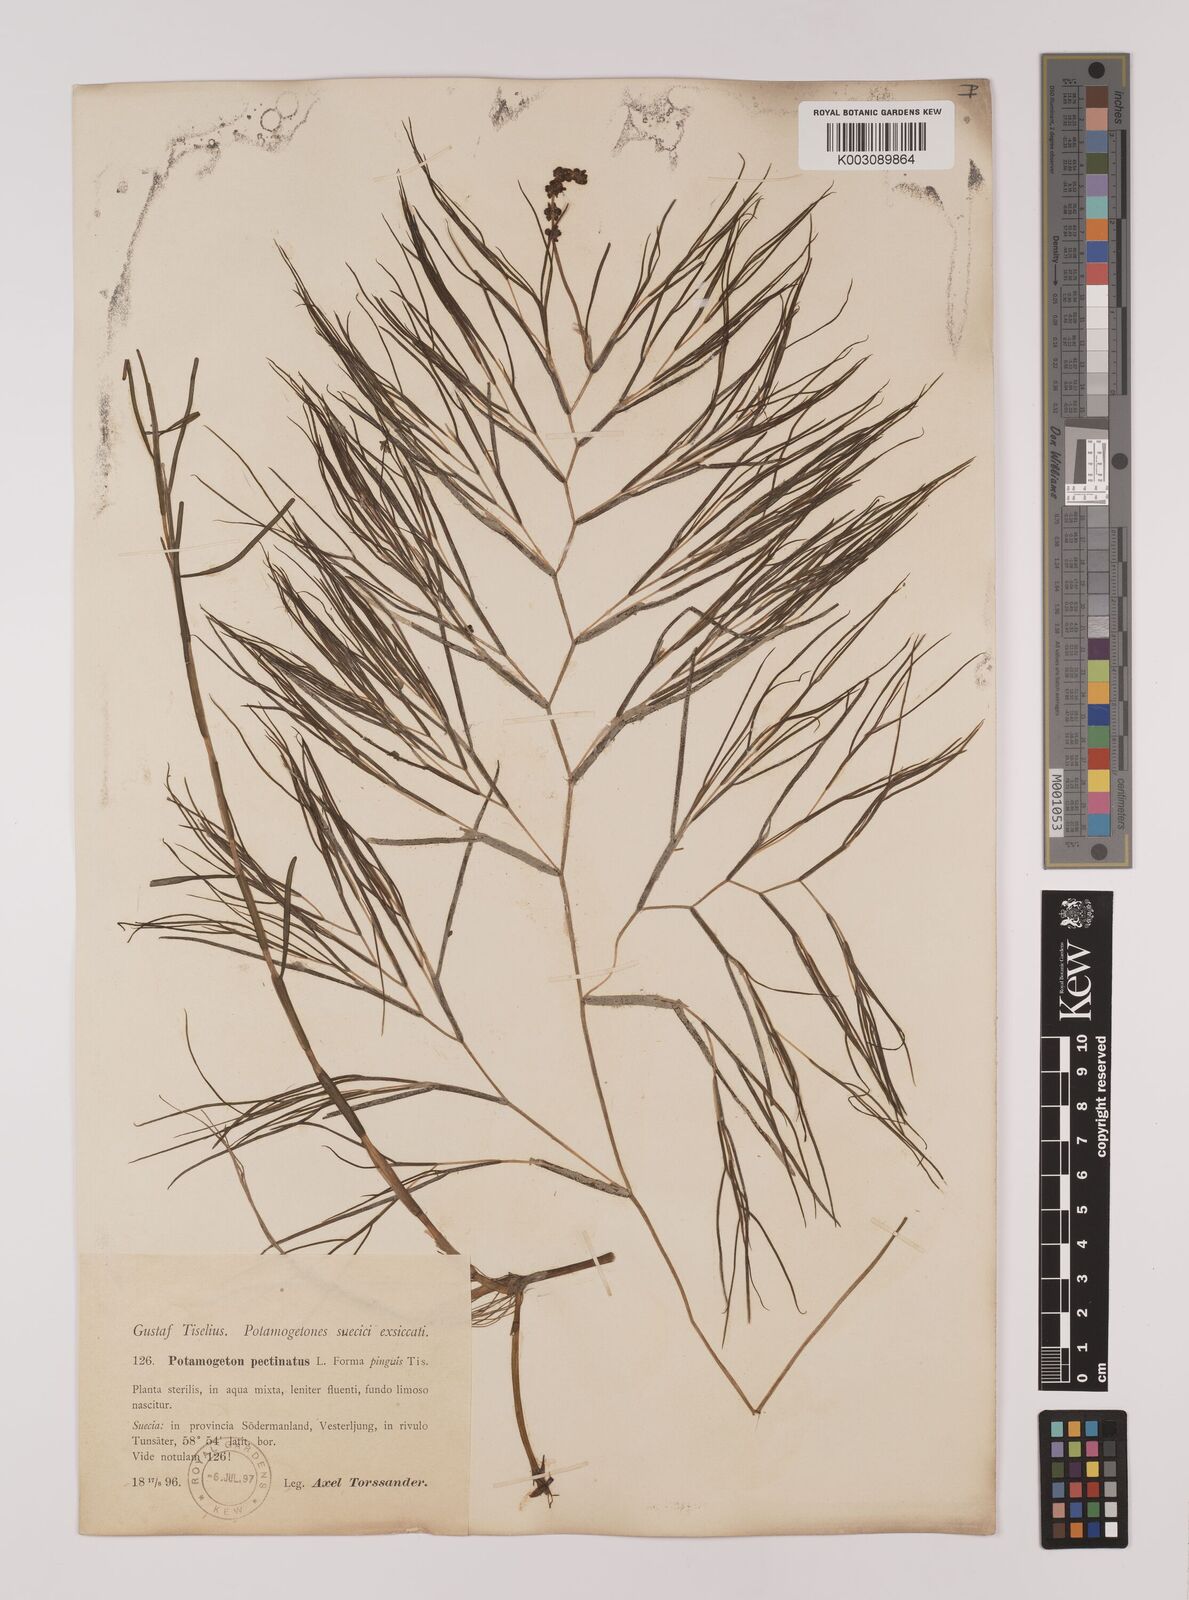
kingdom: Plantae
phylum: Tracheophyta
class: Liliopsida
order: Alismatales
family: Potamogetonaceae
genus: Stuckenia
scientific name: Stuckenia pectinata
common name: Sago pondweed
